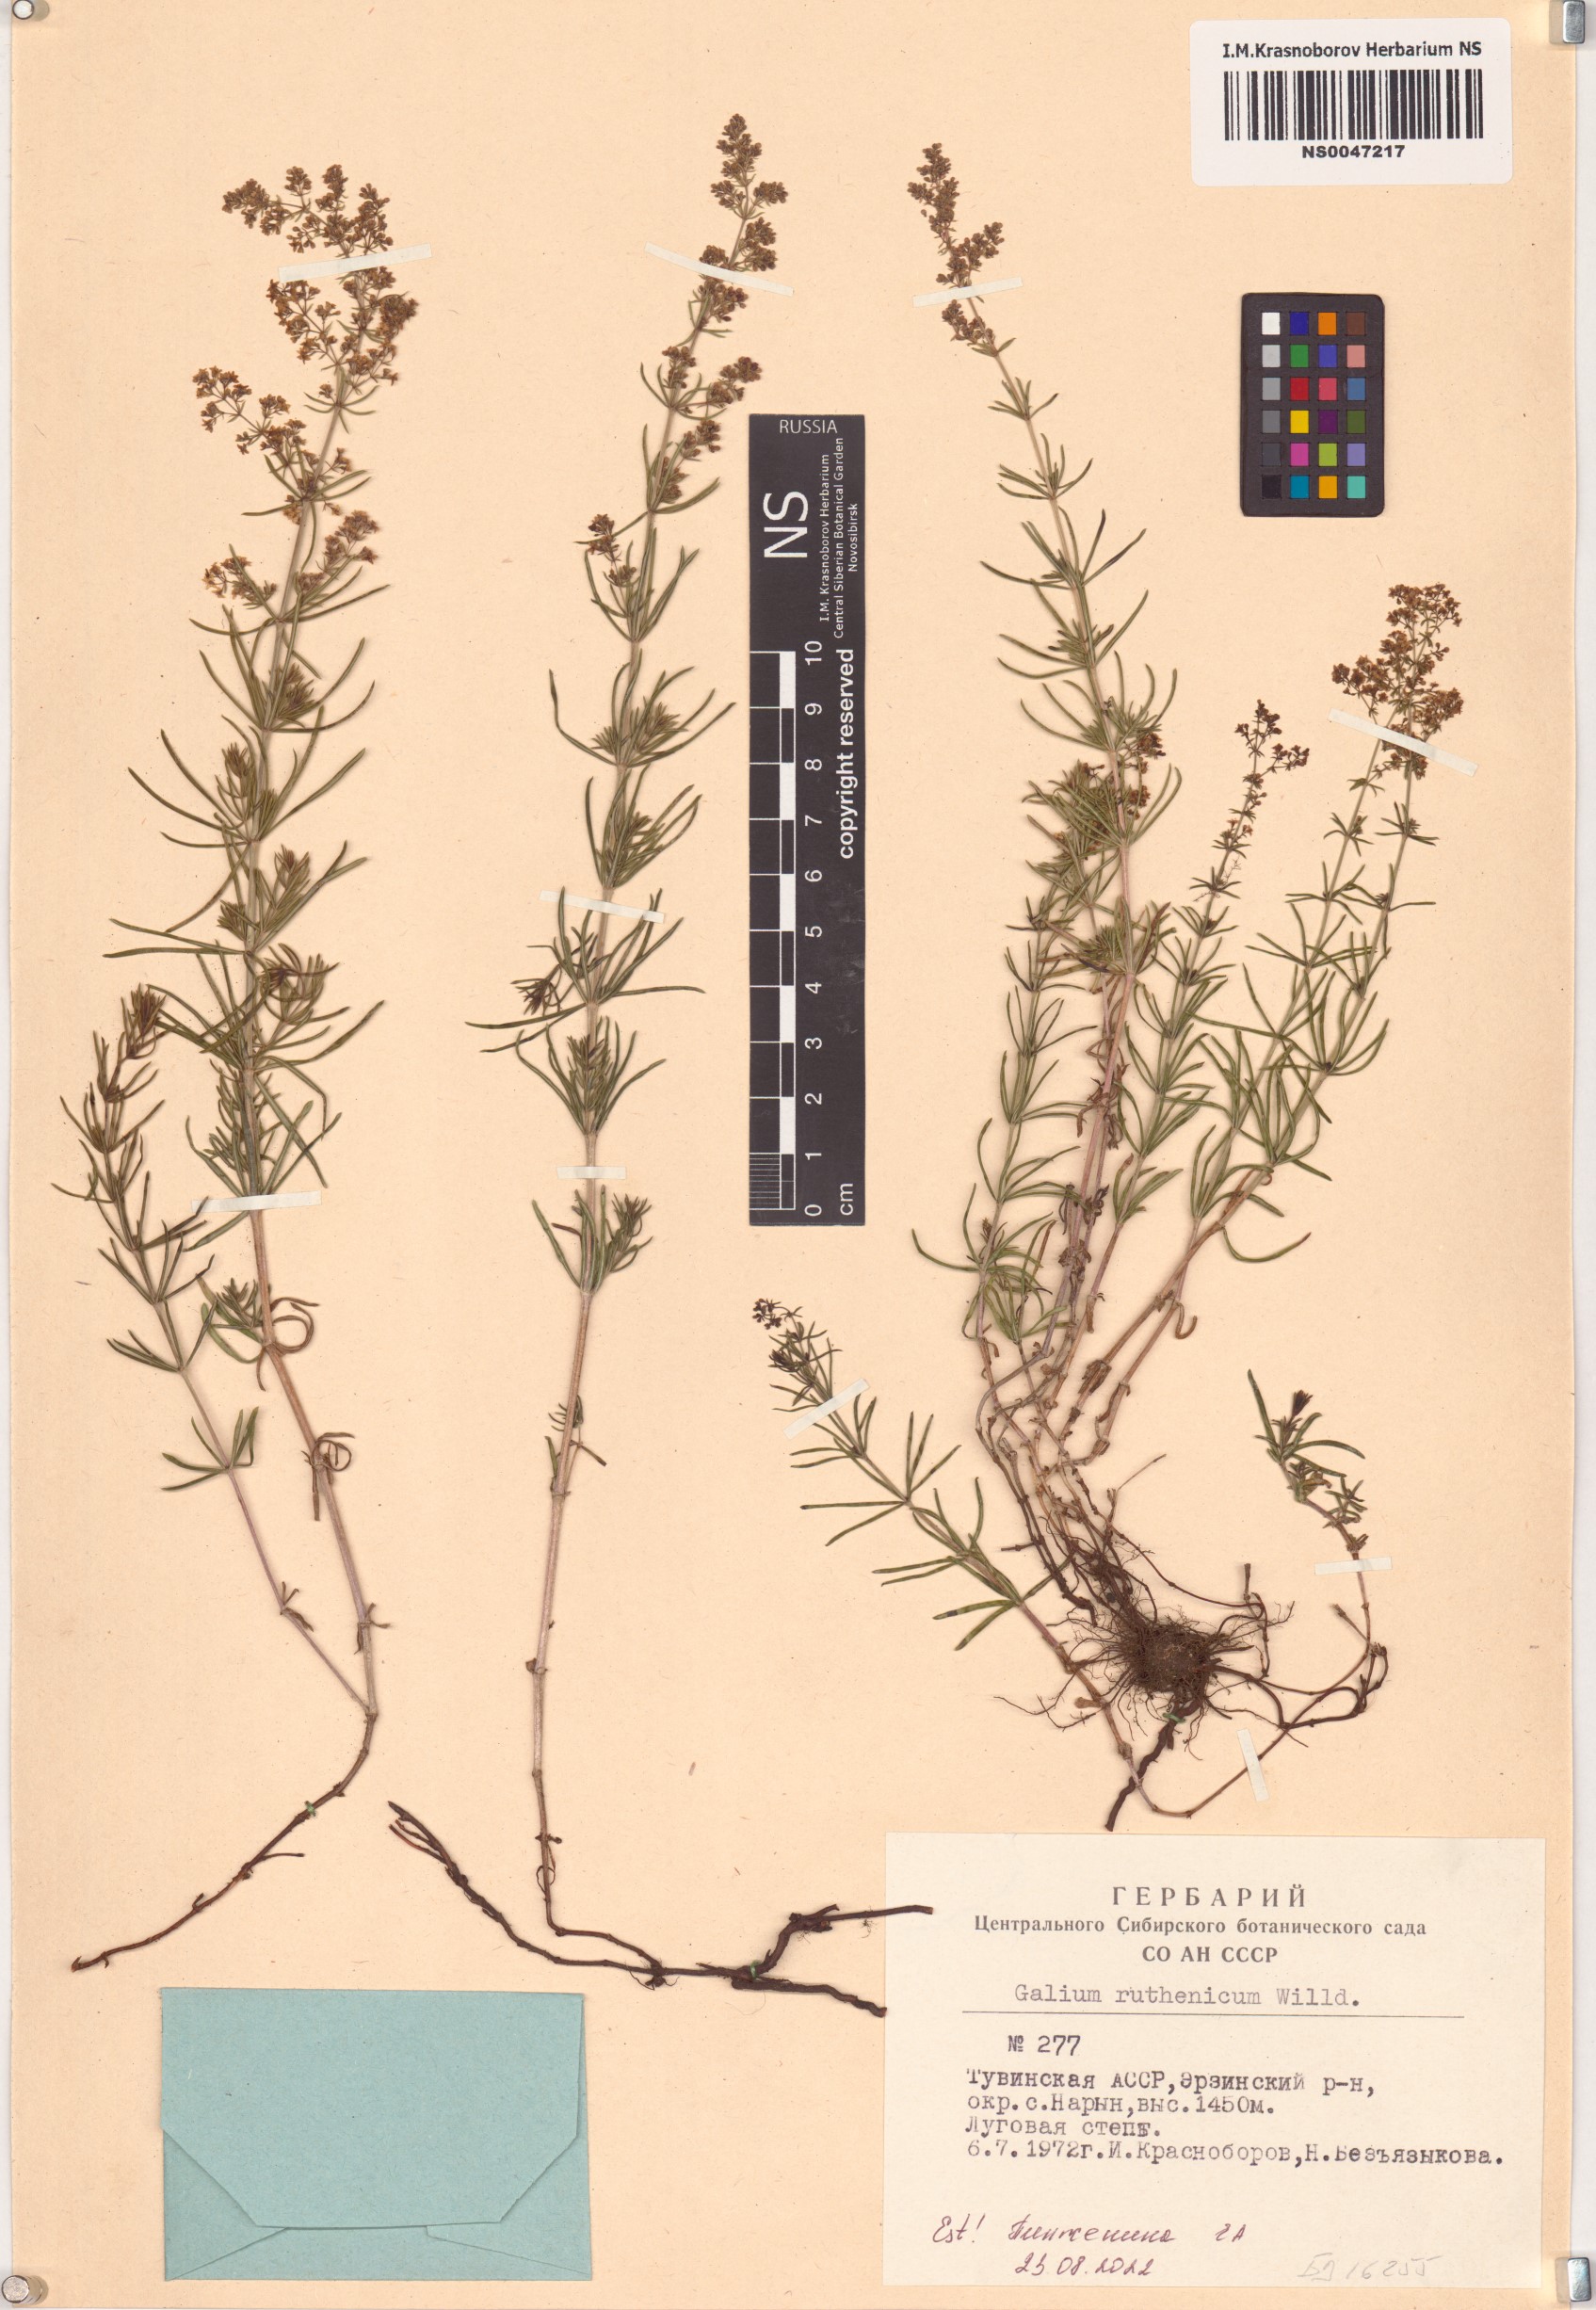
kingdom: Plantae
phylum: Tracheophyta
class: Magnoliopsida
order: Gentianales
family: Rubiaceae
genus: Galium
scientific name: Galium verum
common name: Lady's bedstraw
